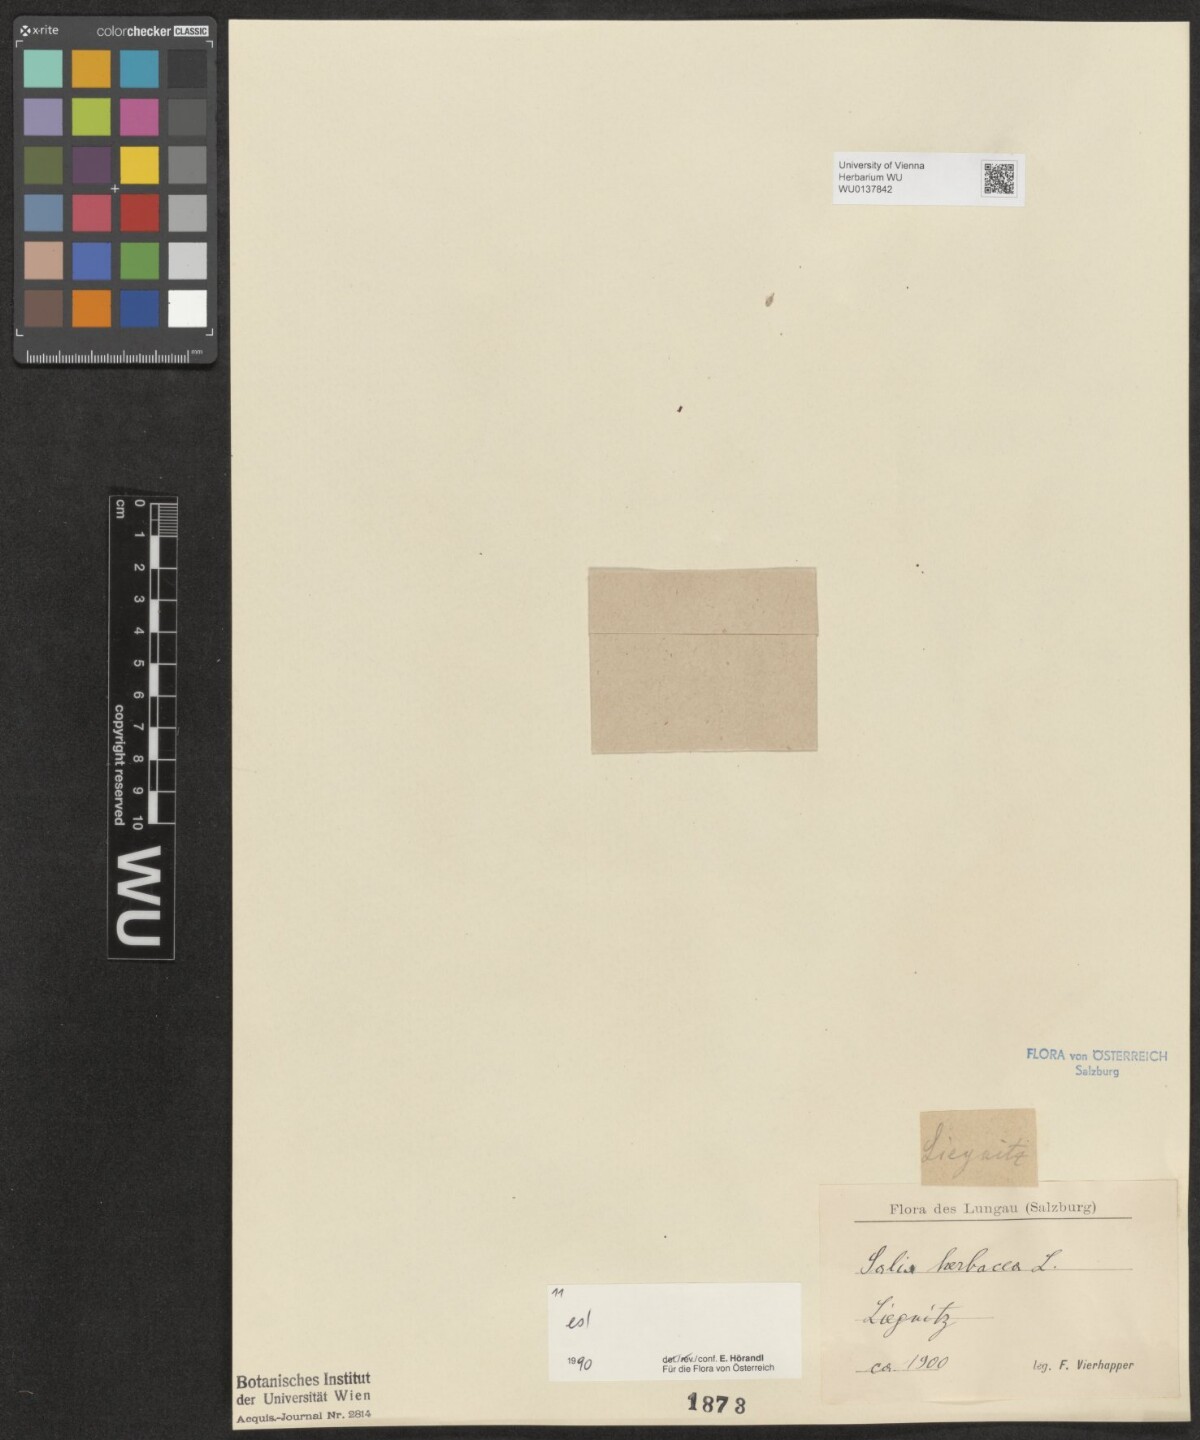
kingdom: Plantae
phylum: Tracheophyta
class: Magnoliopsida
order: Malpighiales
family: Salicaceae
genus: Salix
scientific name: Salix herbacea
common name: Dwarf willow
